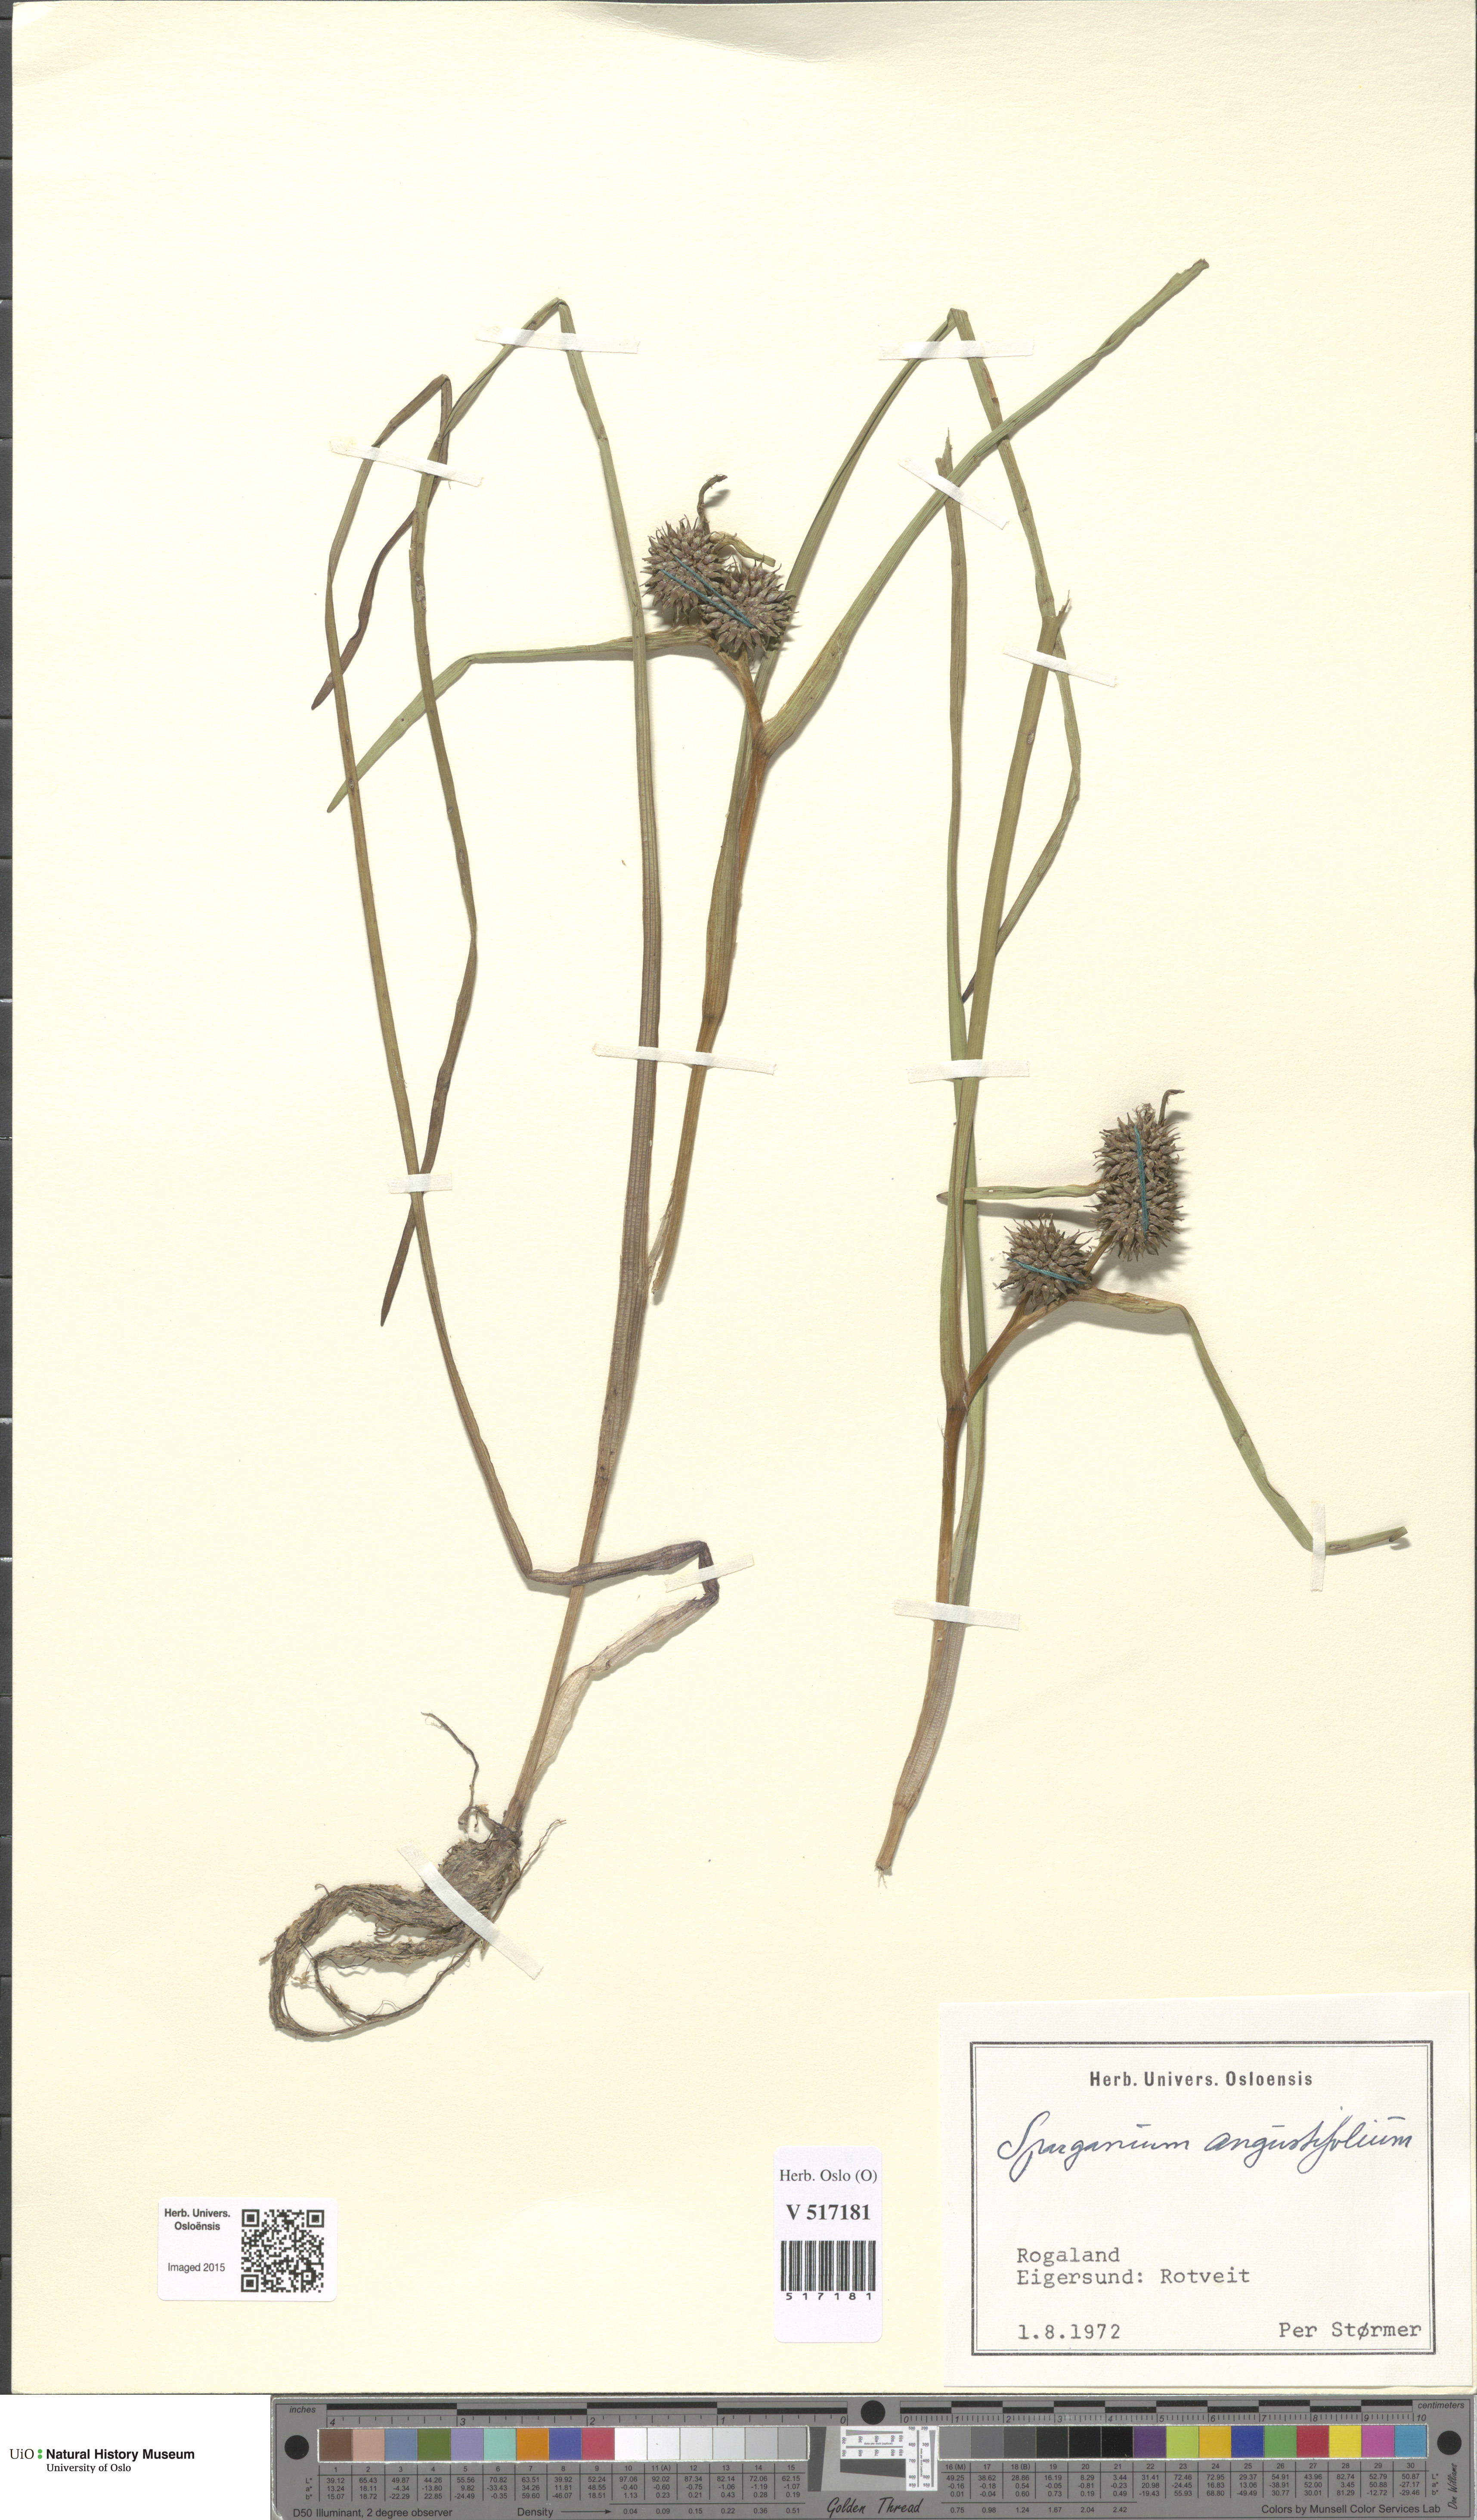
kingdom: Plantae
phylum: Tracheophyta
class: Liliopsida
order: Poales
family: Typhaceae
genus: Sparganium
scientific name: Sparganium angustifolium
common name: Floating bur-reed
